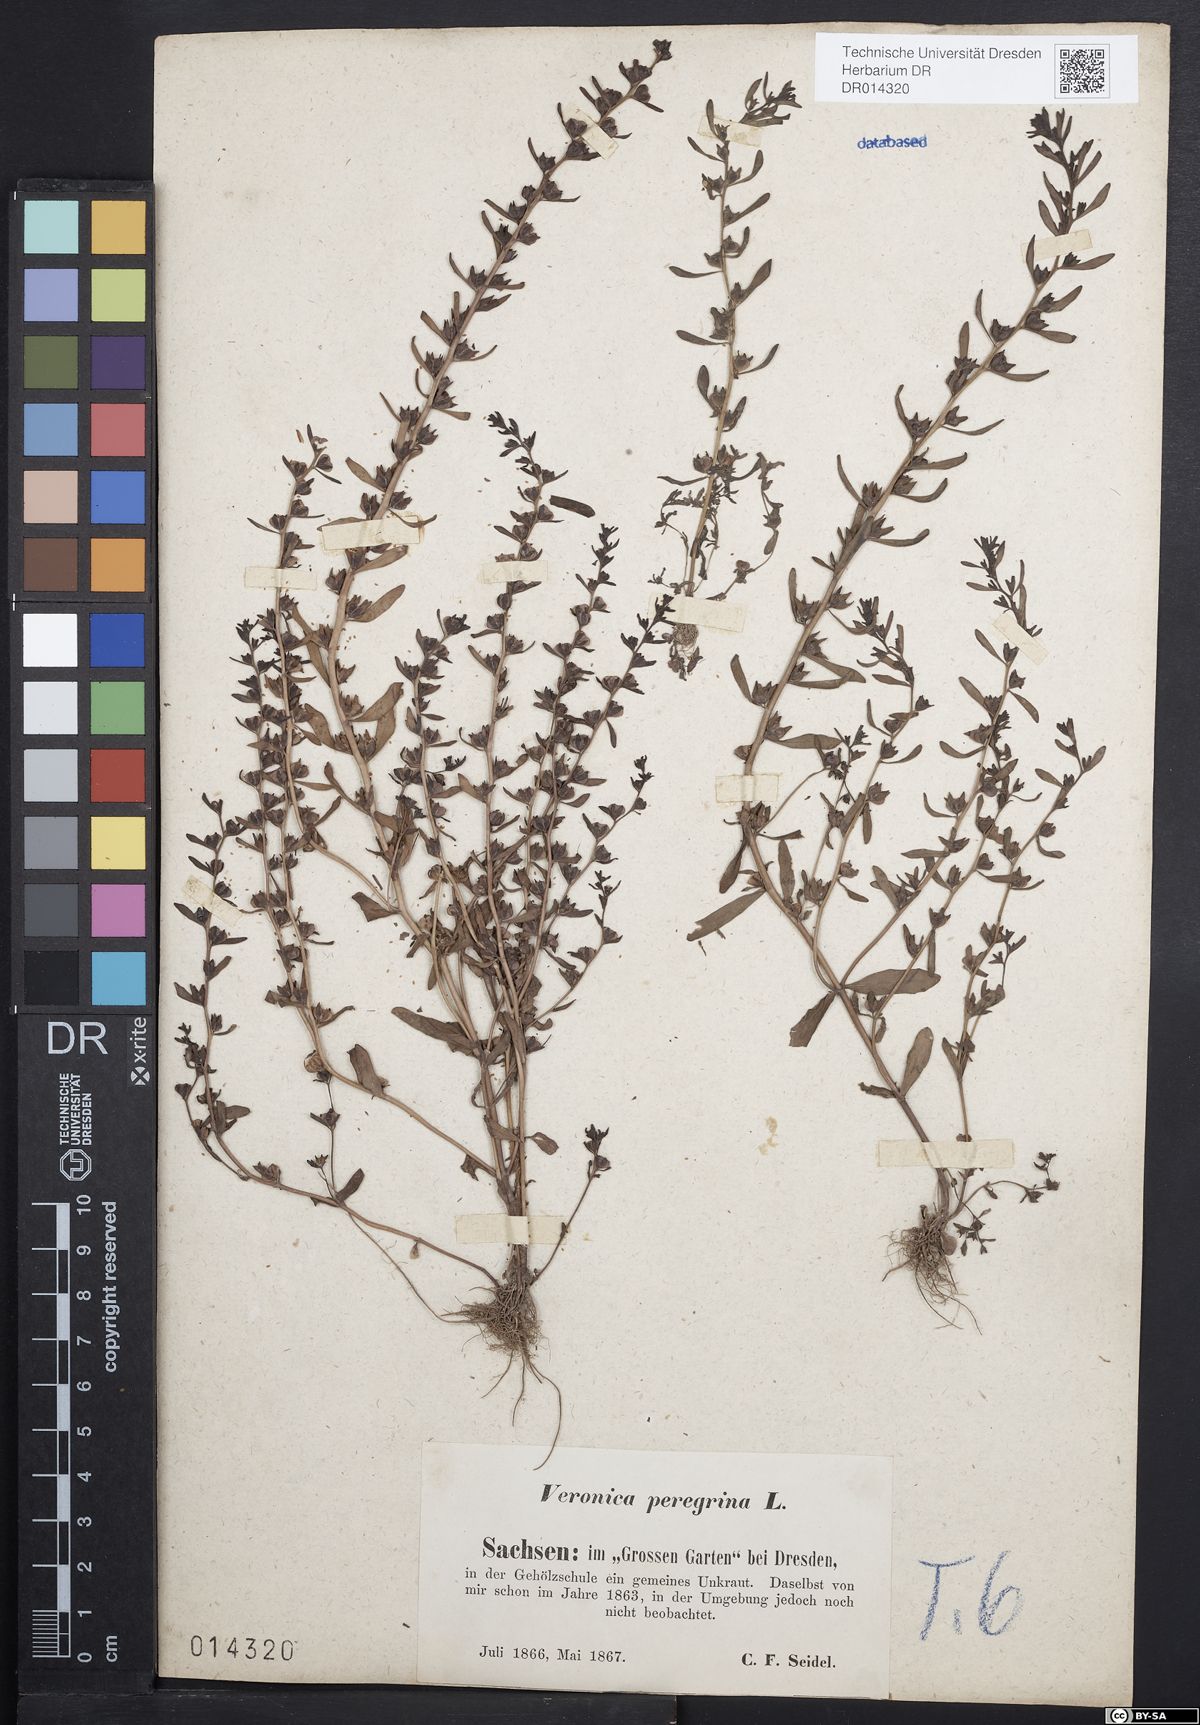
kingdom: Plantae
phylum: Tracheophyta
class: Magnoliopsida
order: Lamiales
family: Plantaginaceae
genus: Veronica
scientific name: Veronica peregrina
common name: Neckweed
